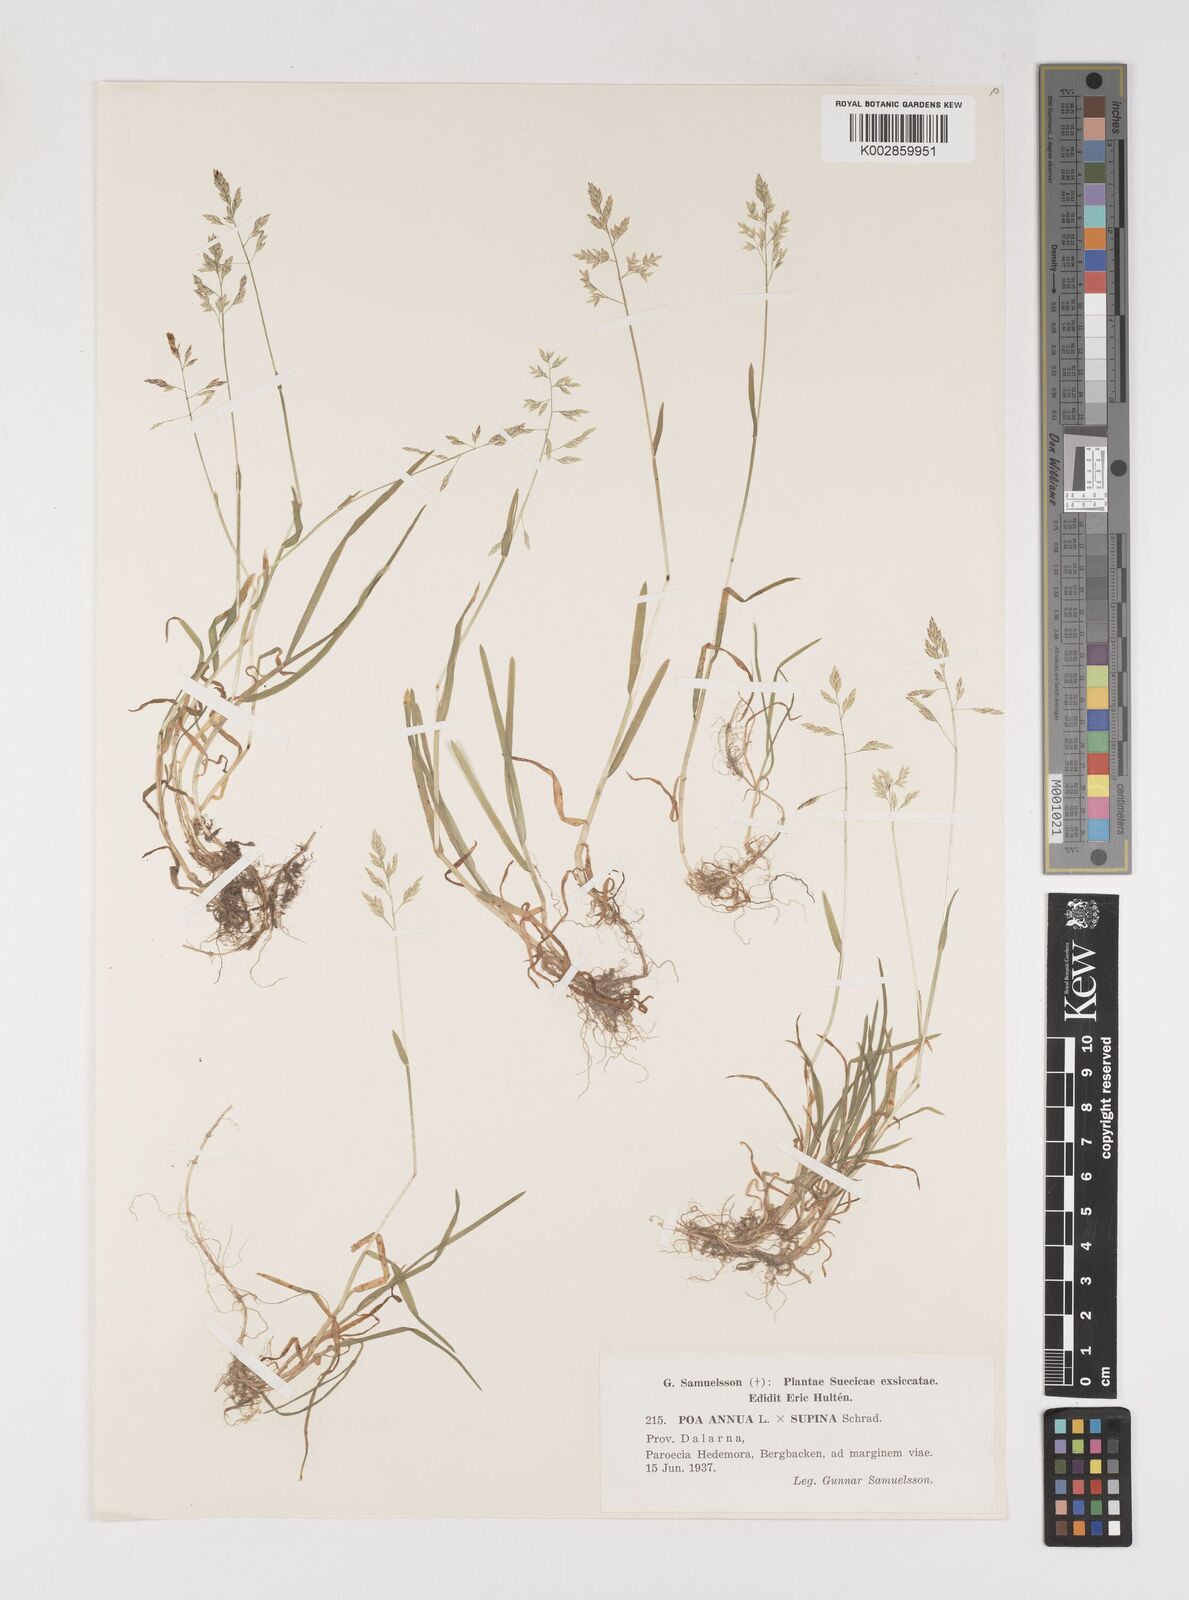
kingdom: Plantae
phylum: Tracheophyta
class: Liliopsida
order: Poales
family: Poaceae
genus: Poa
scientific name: Poa
